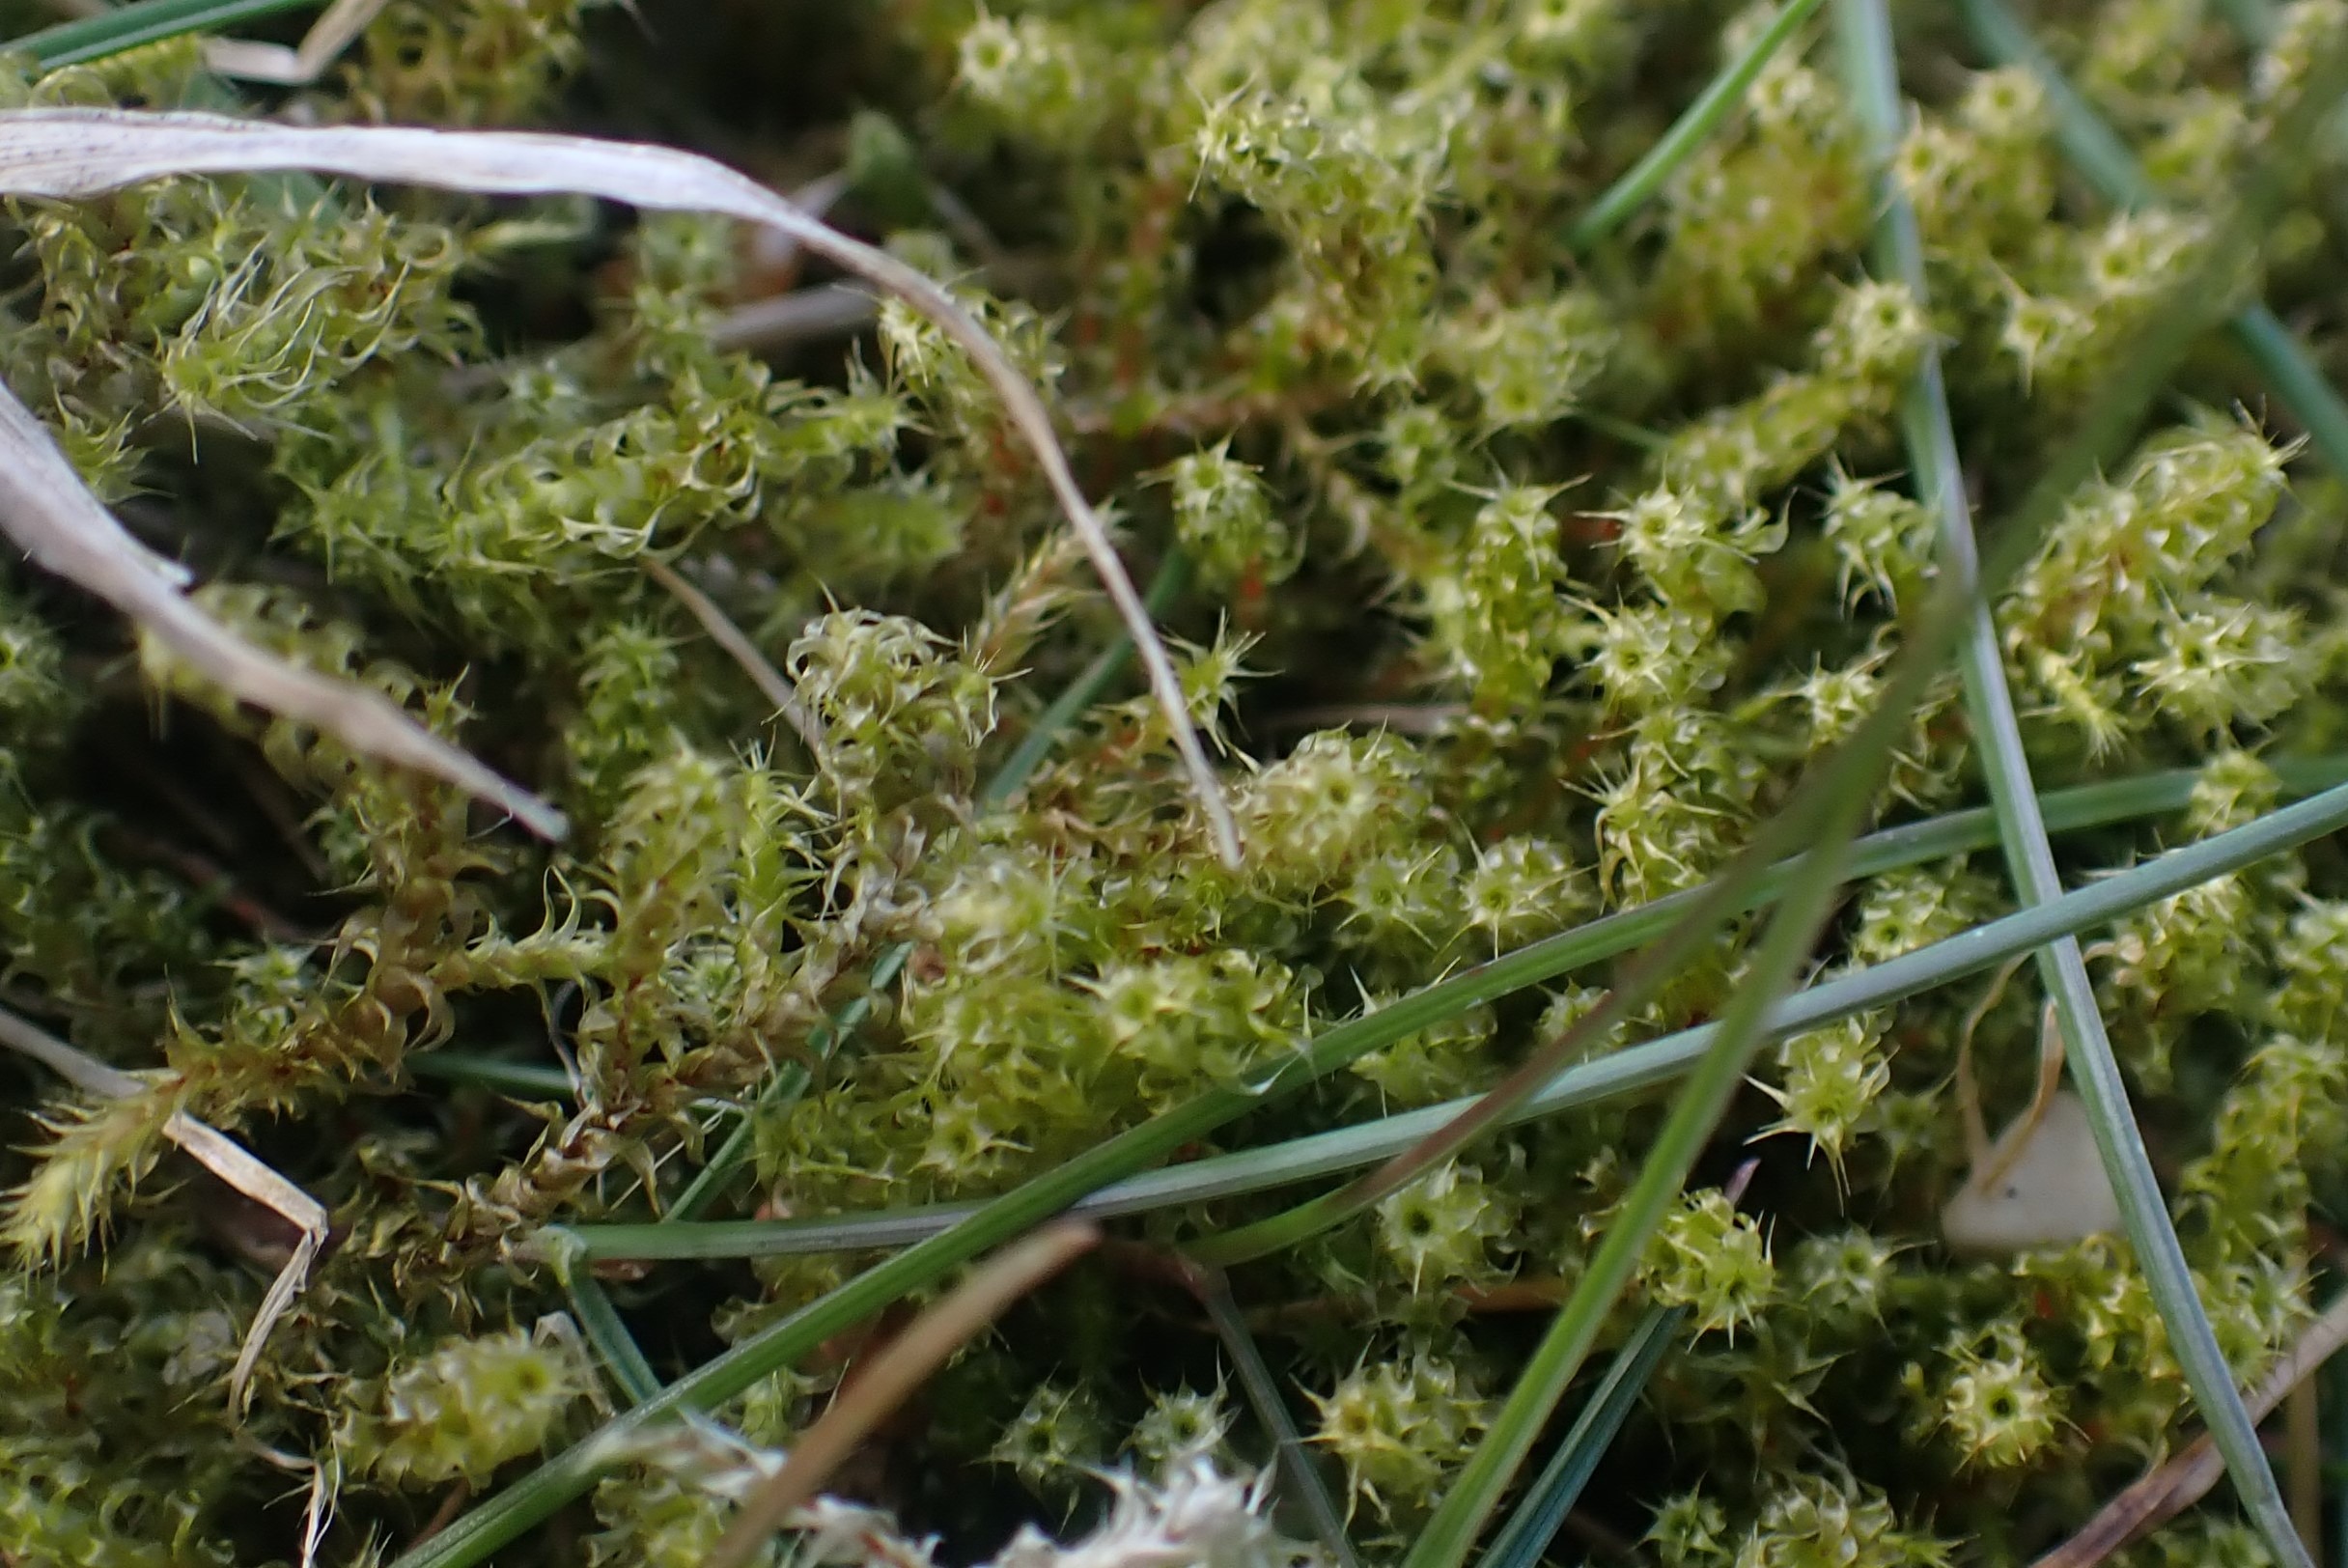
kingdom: Plantae
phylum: Bryophyta
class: Bryopsida
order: Hypnales
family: Hylocomiaceae
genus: Rhytidiadelphus
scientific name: Rhytidiadelphus squarrosus
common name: Plæne-kransemos
